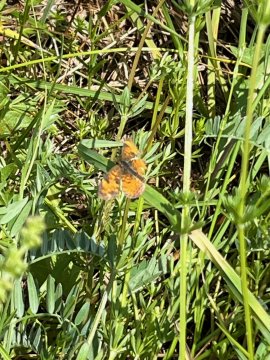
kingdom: Animalia
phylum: Arthropoda
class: Insecta
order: Lepidoptera
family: Nymphalidae
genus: Phyciodes
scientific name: Phyciodes tharos
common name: Northern Crescent
